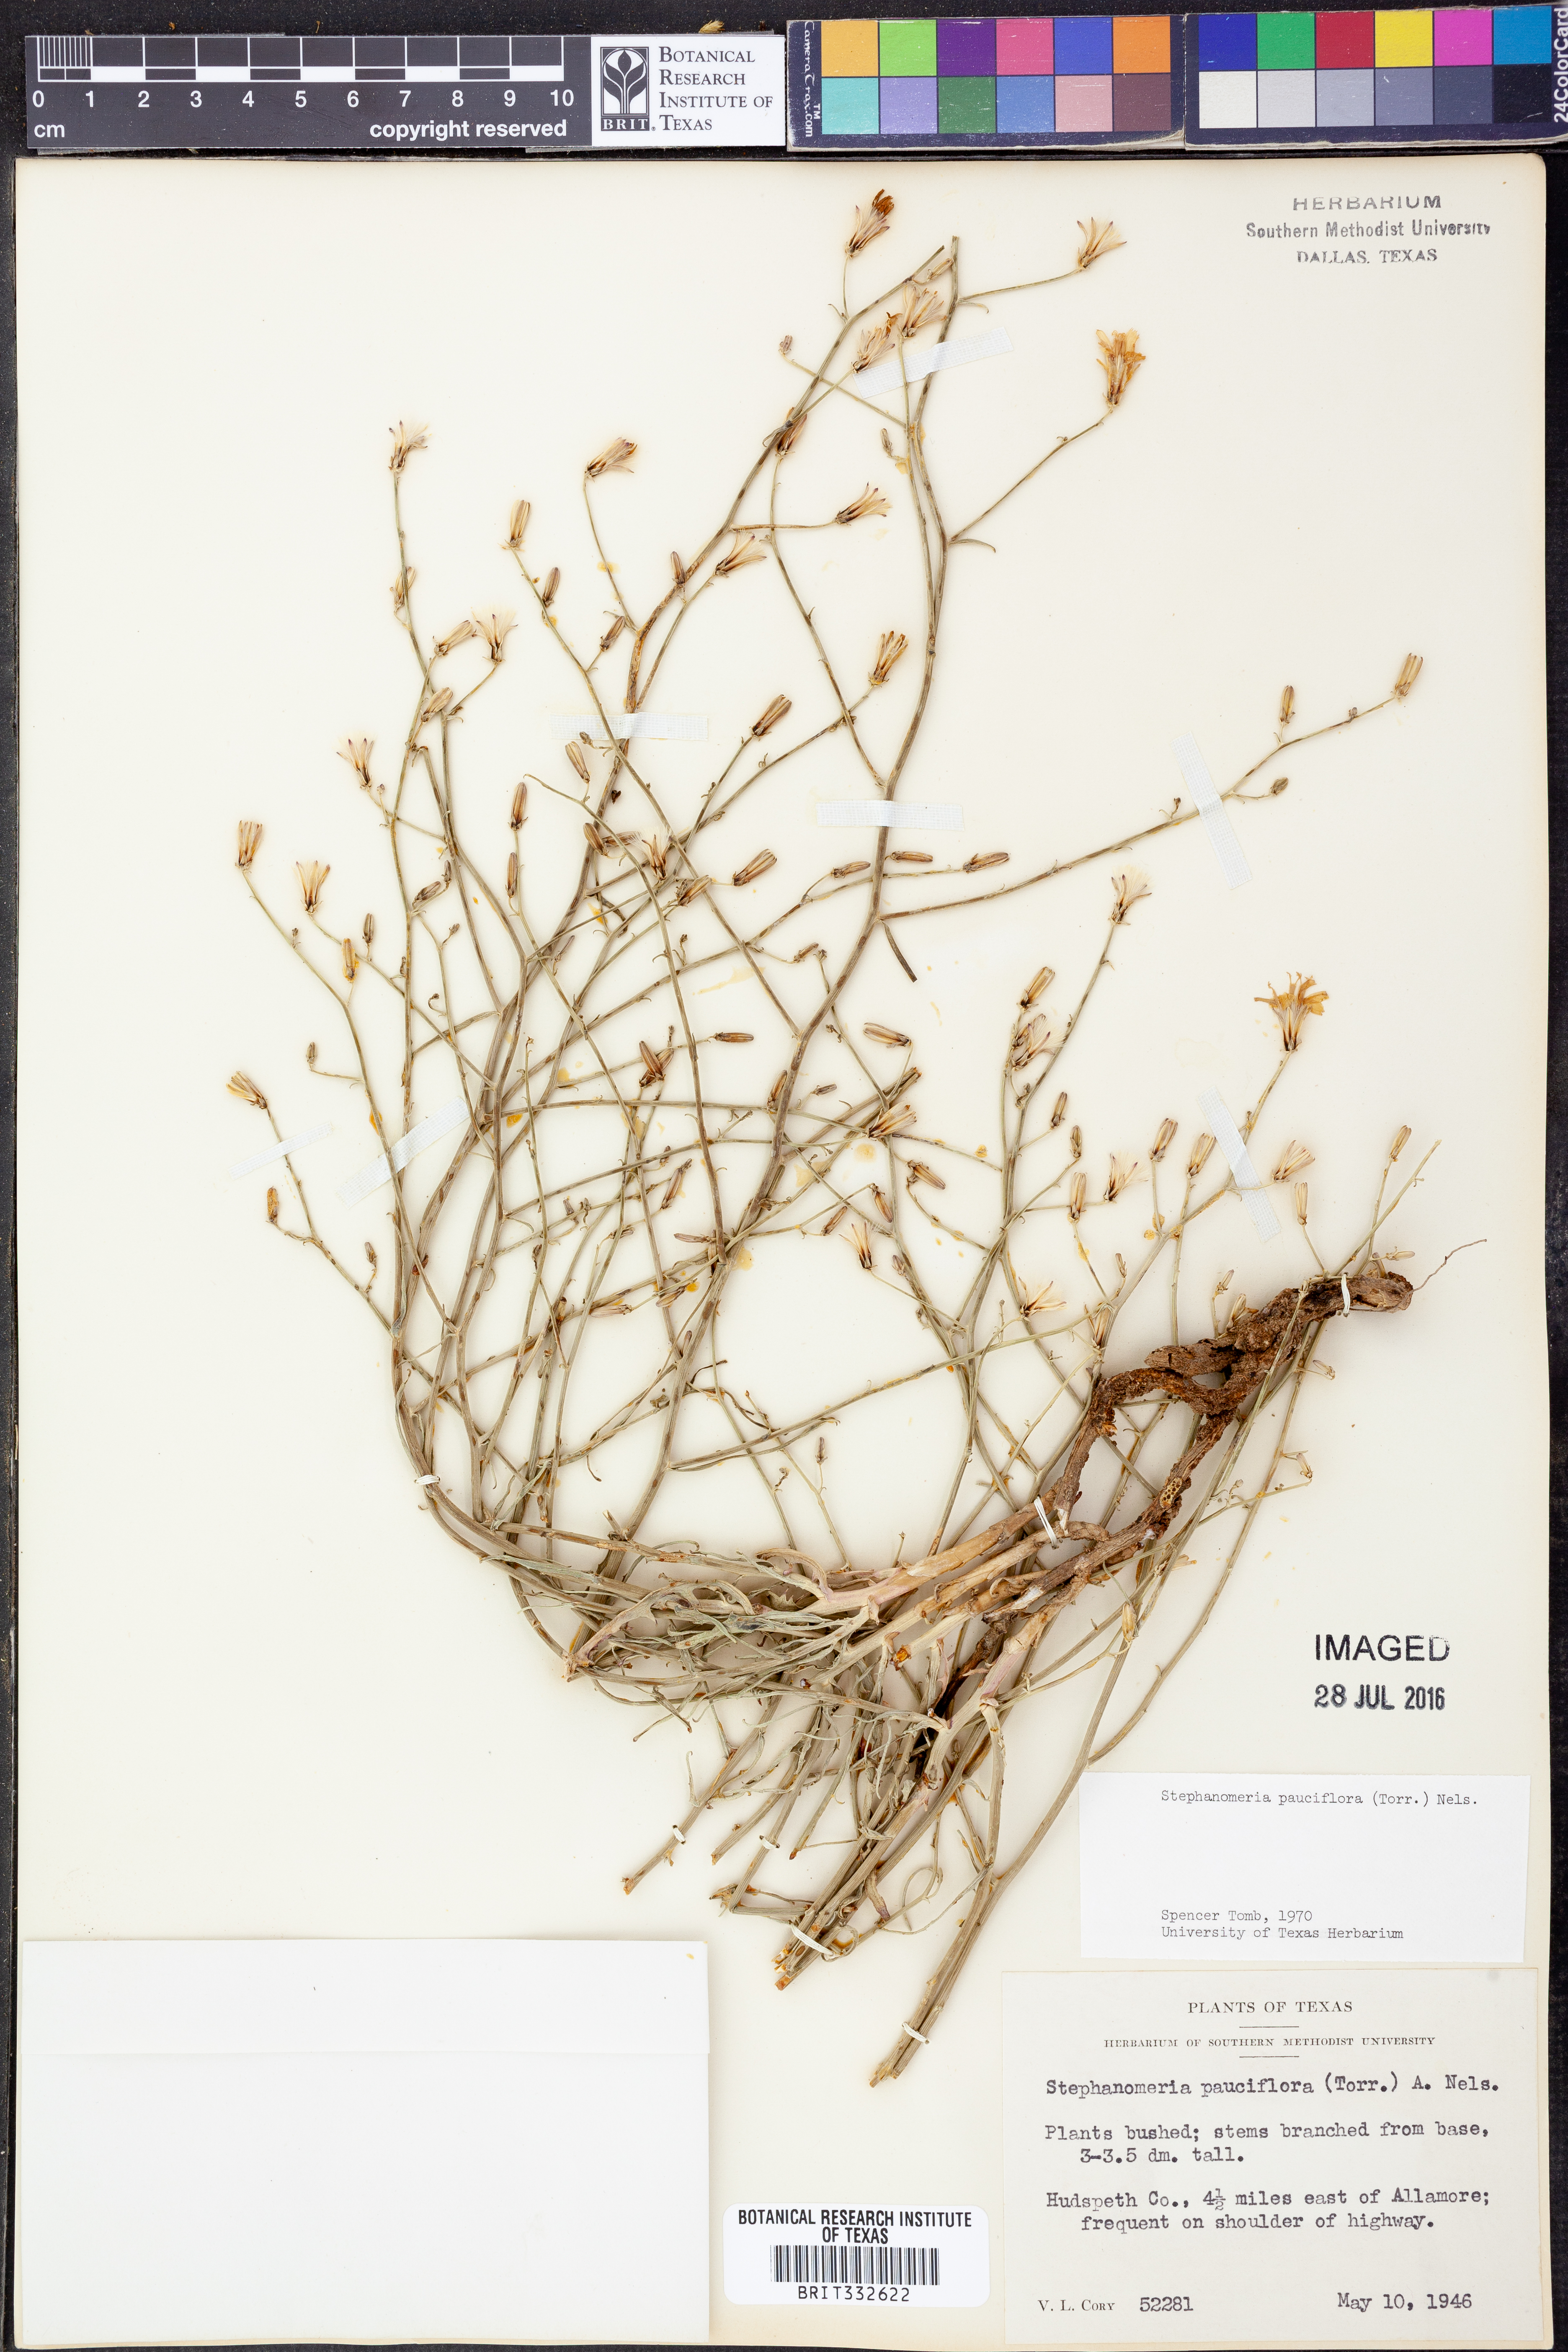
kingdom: Plantae
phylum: Tracheophyta
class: Magnoliopsida
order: Asterales
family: Asteraceae
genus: Stephanomeria
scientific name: Stephanomeria pauciflora
